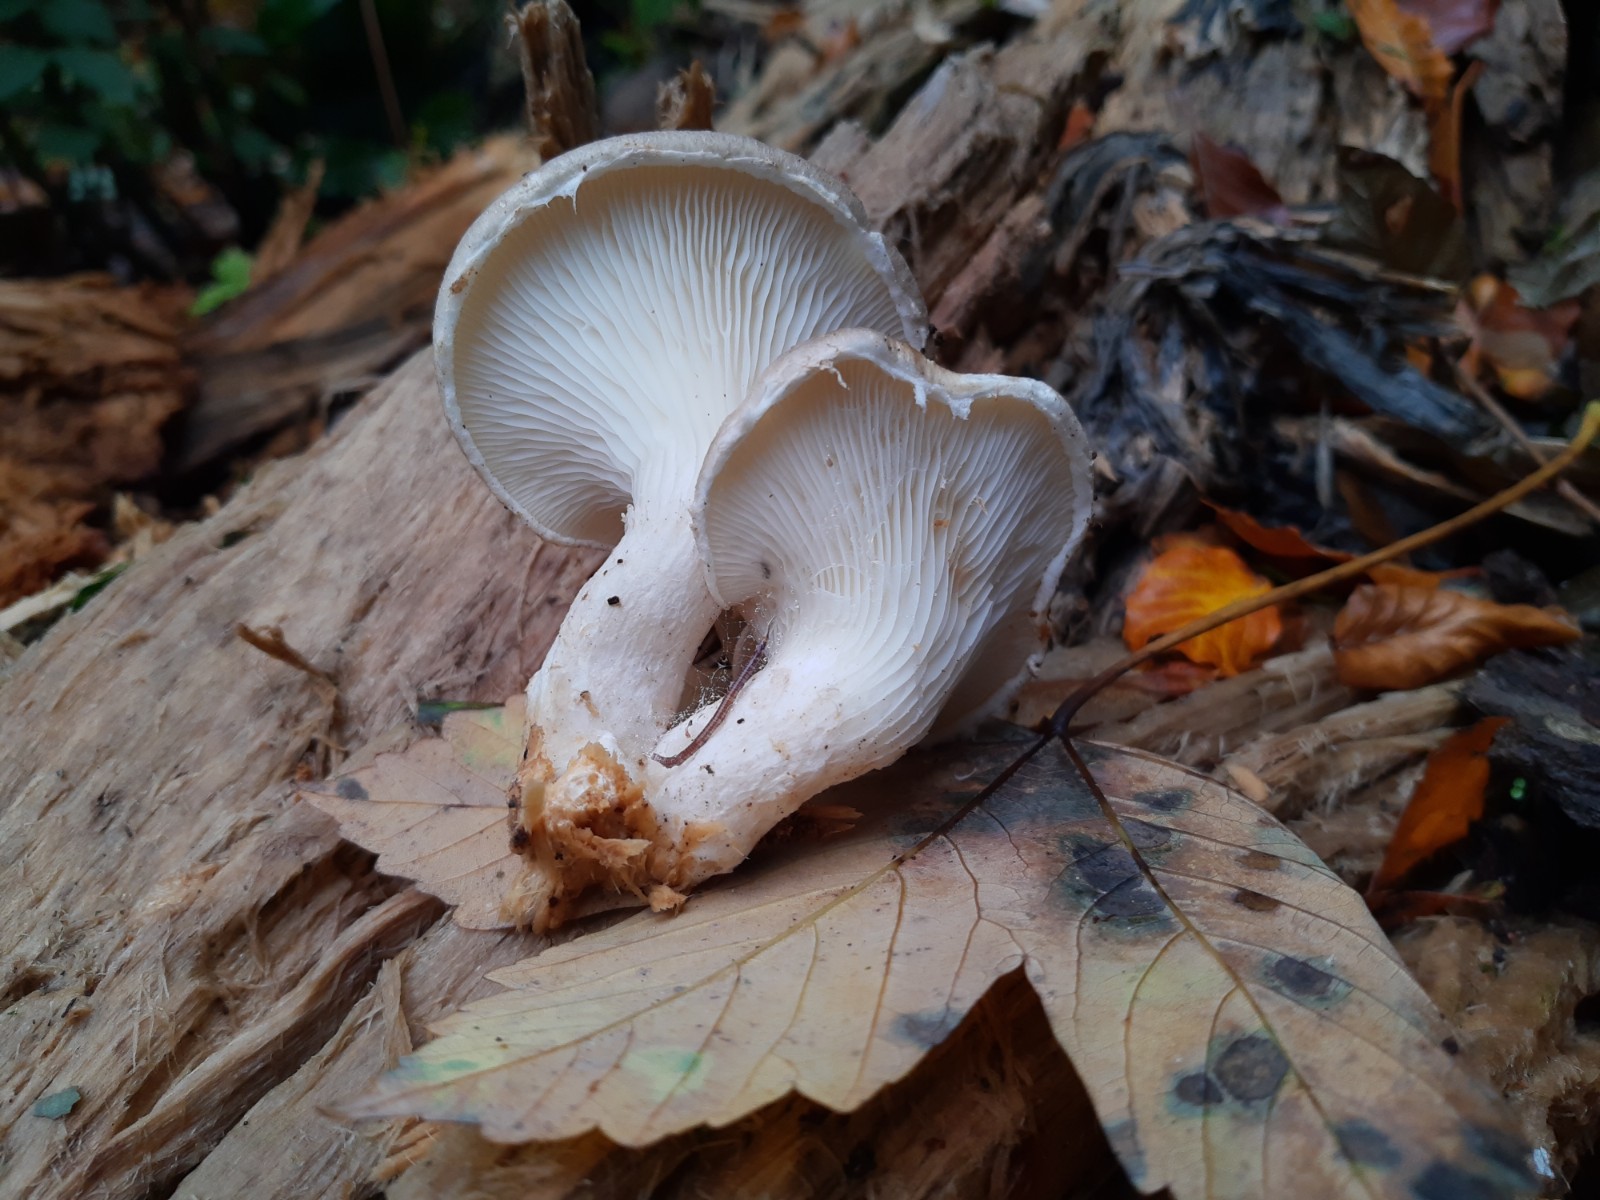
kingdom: Fungi
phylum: Basidiomycota
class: Agaricomycetes
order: Agaricales
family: Pleurotaceae
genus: Pleurotus
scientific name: Pleurotus dryinus
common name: korkagtig østershat
